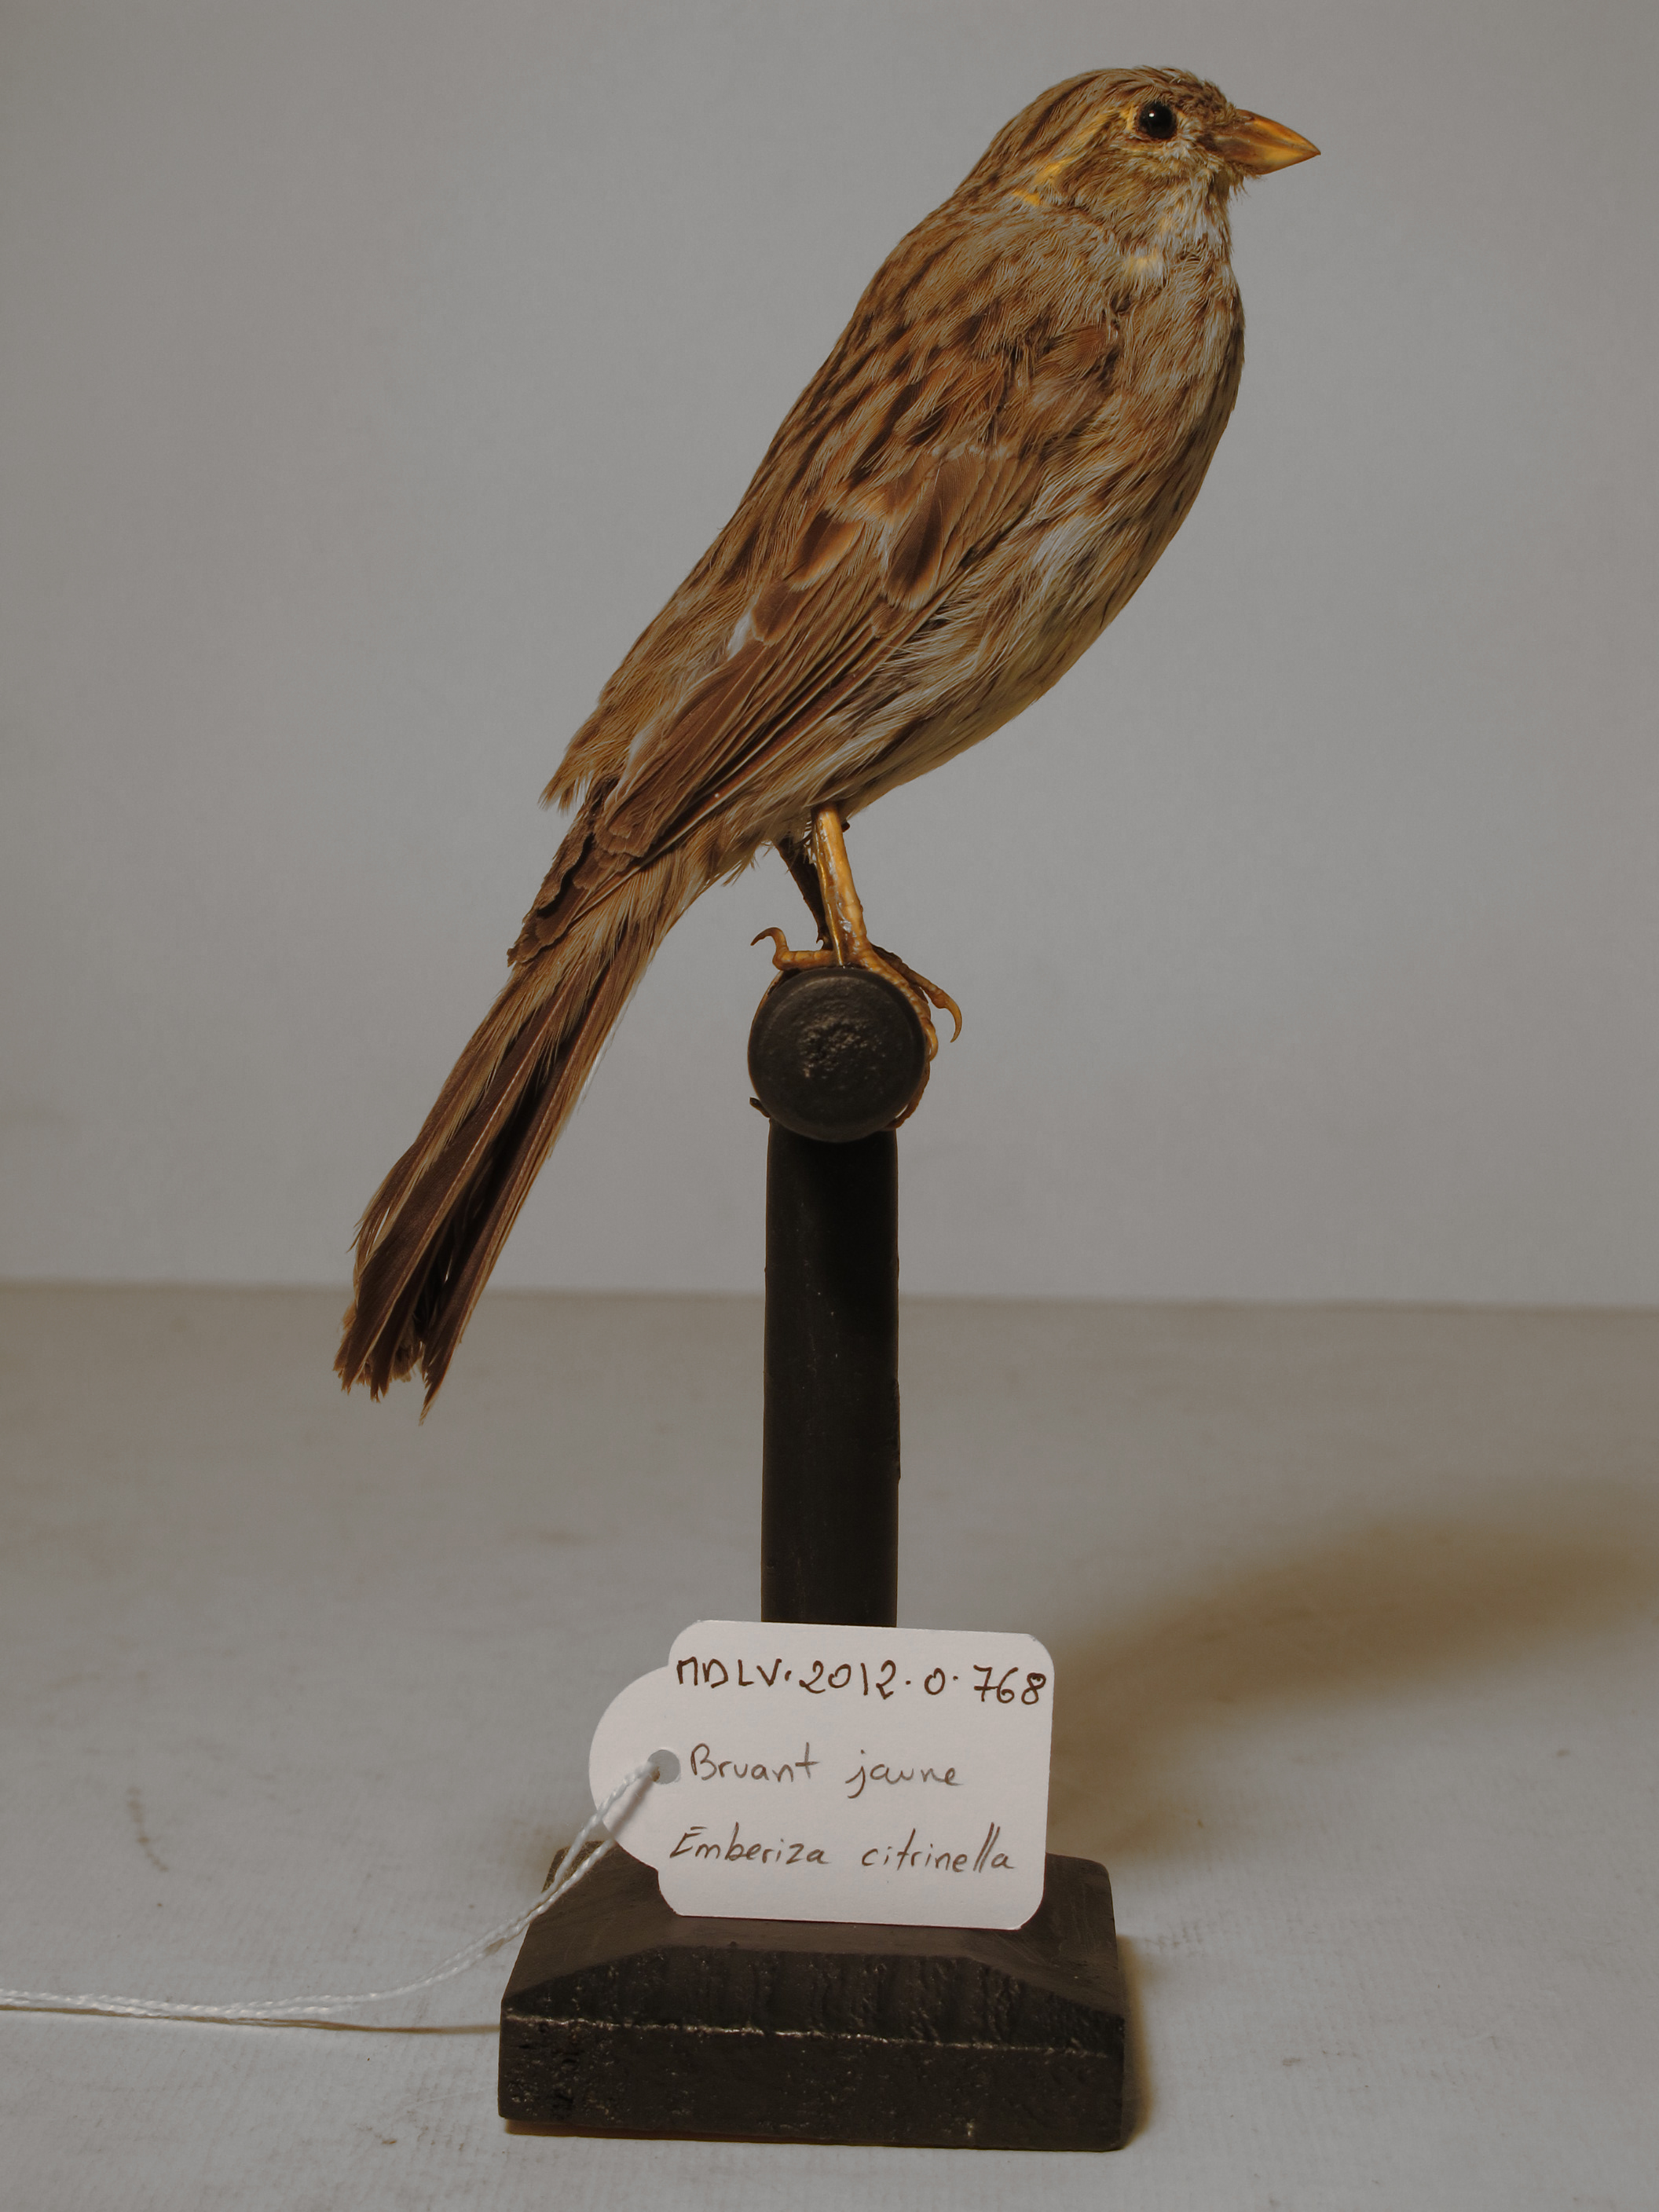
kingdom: Animalia
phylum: Chordata
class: Aves
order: Passeriformes
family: Emberizidae
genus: Emberiza
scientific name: Emberiza citrinella
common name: Yellowhammer
